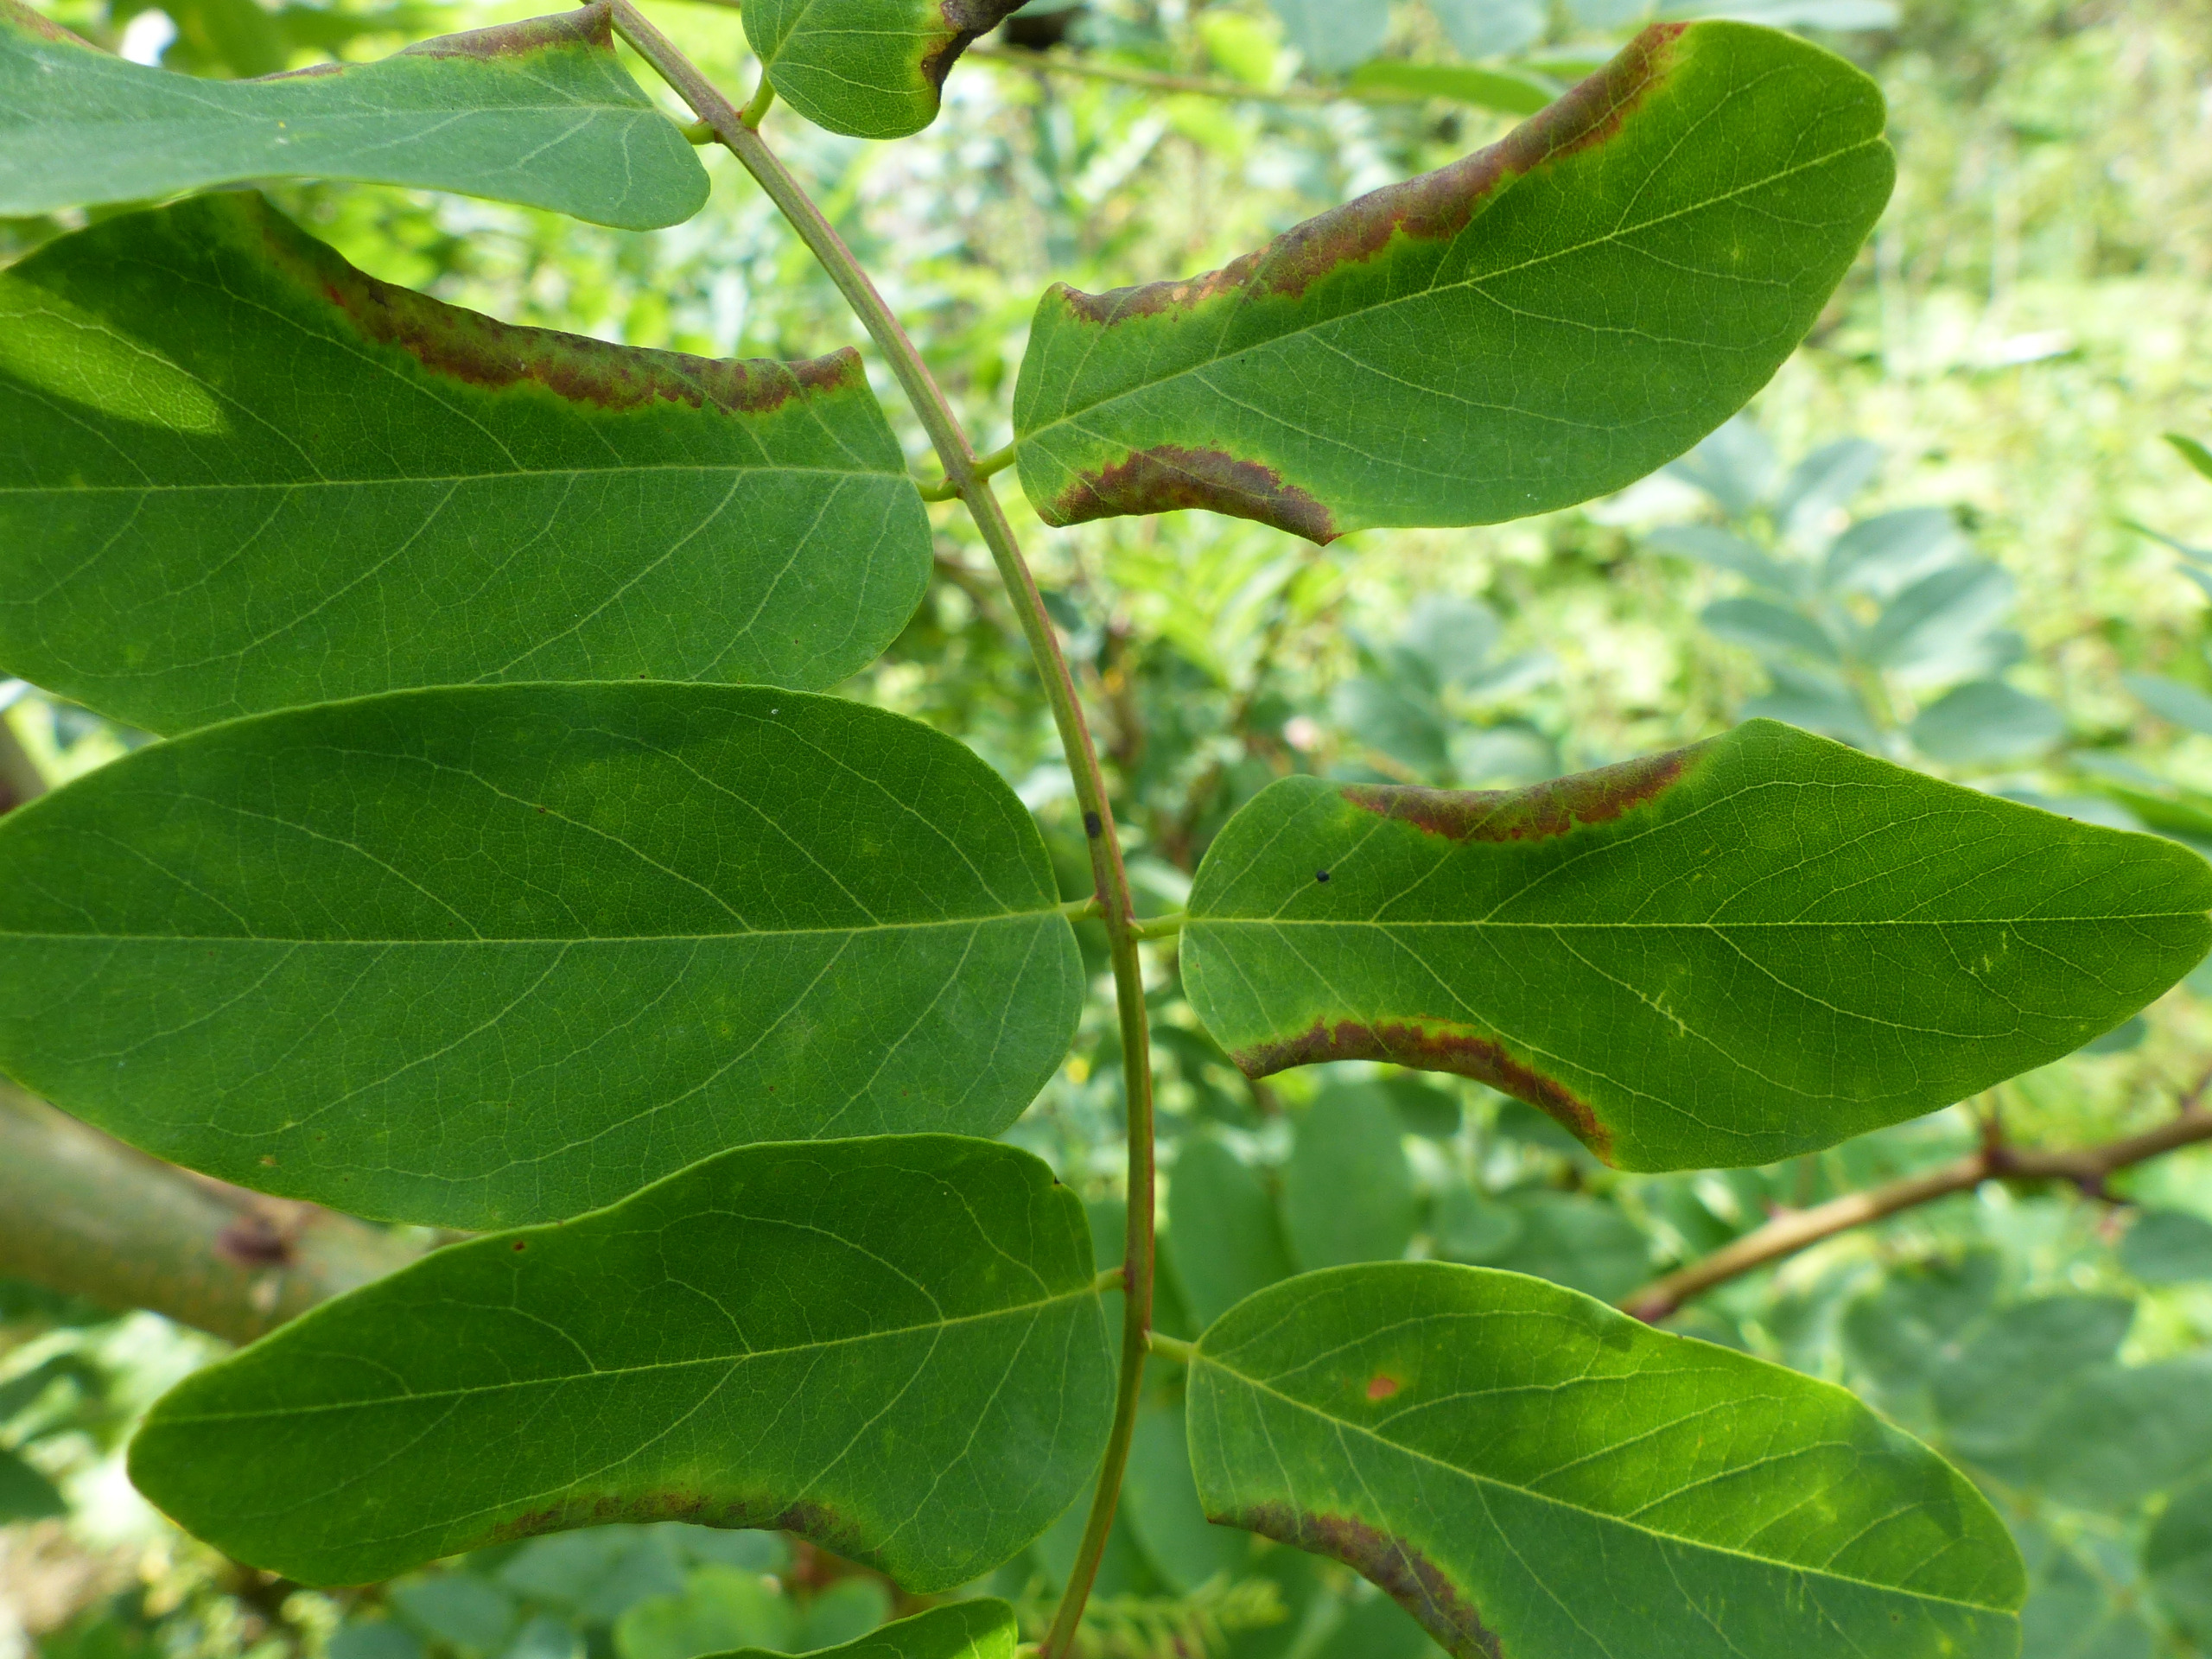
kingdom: Animalia
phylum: Arthropoda
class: Insecta
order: Diptera
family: Cecidomyiidae
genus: Obolodiplosis
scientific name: Obolodiplosis robiniae
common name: Robiniegalmyg
